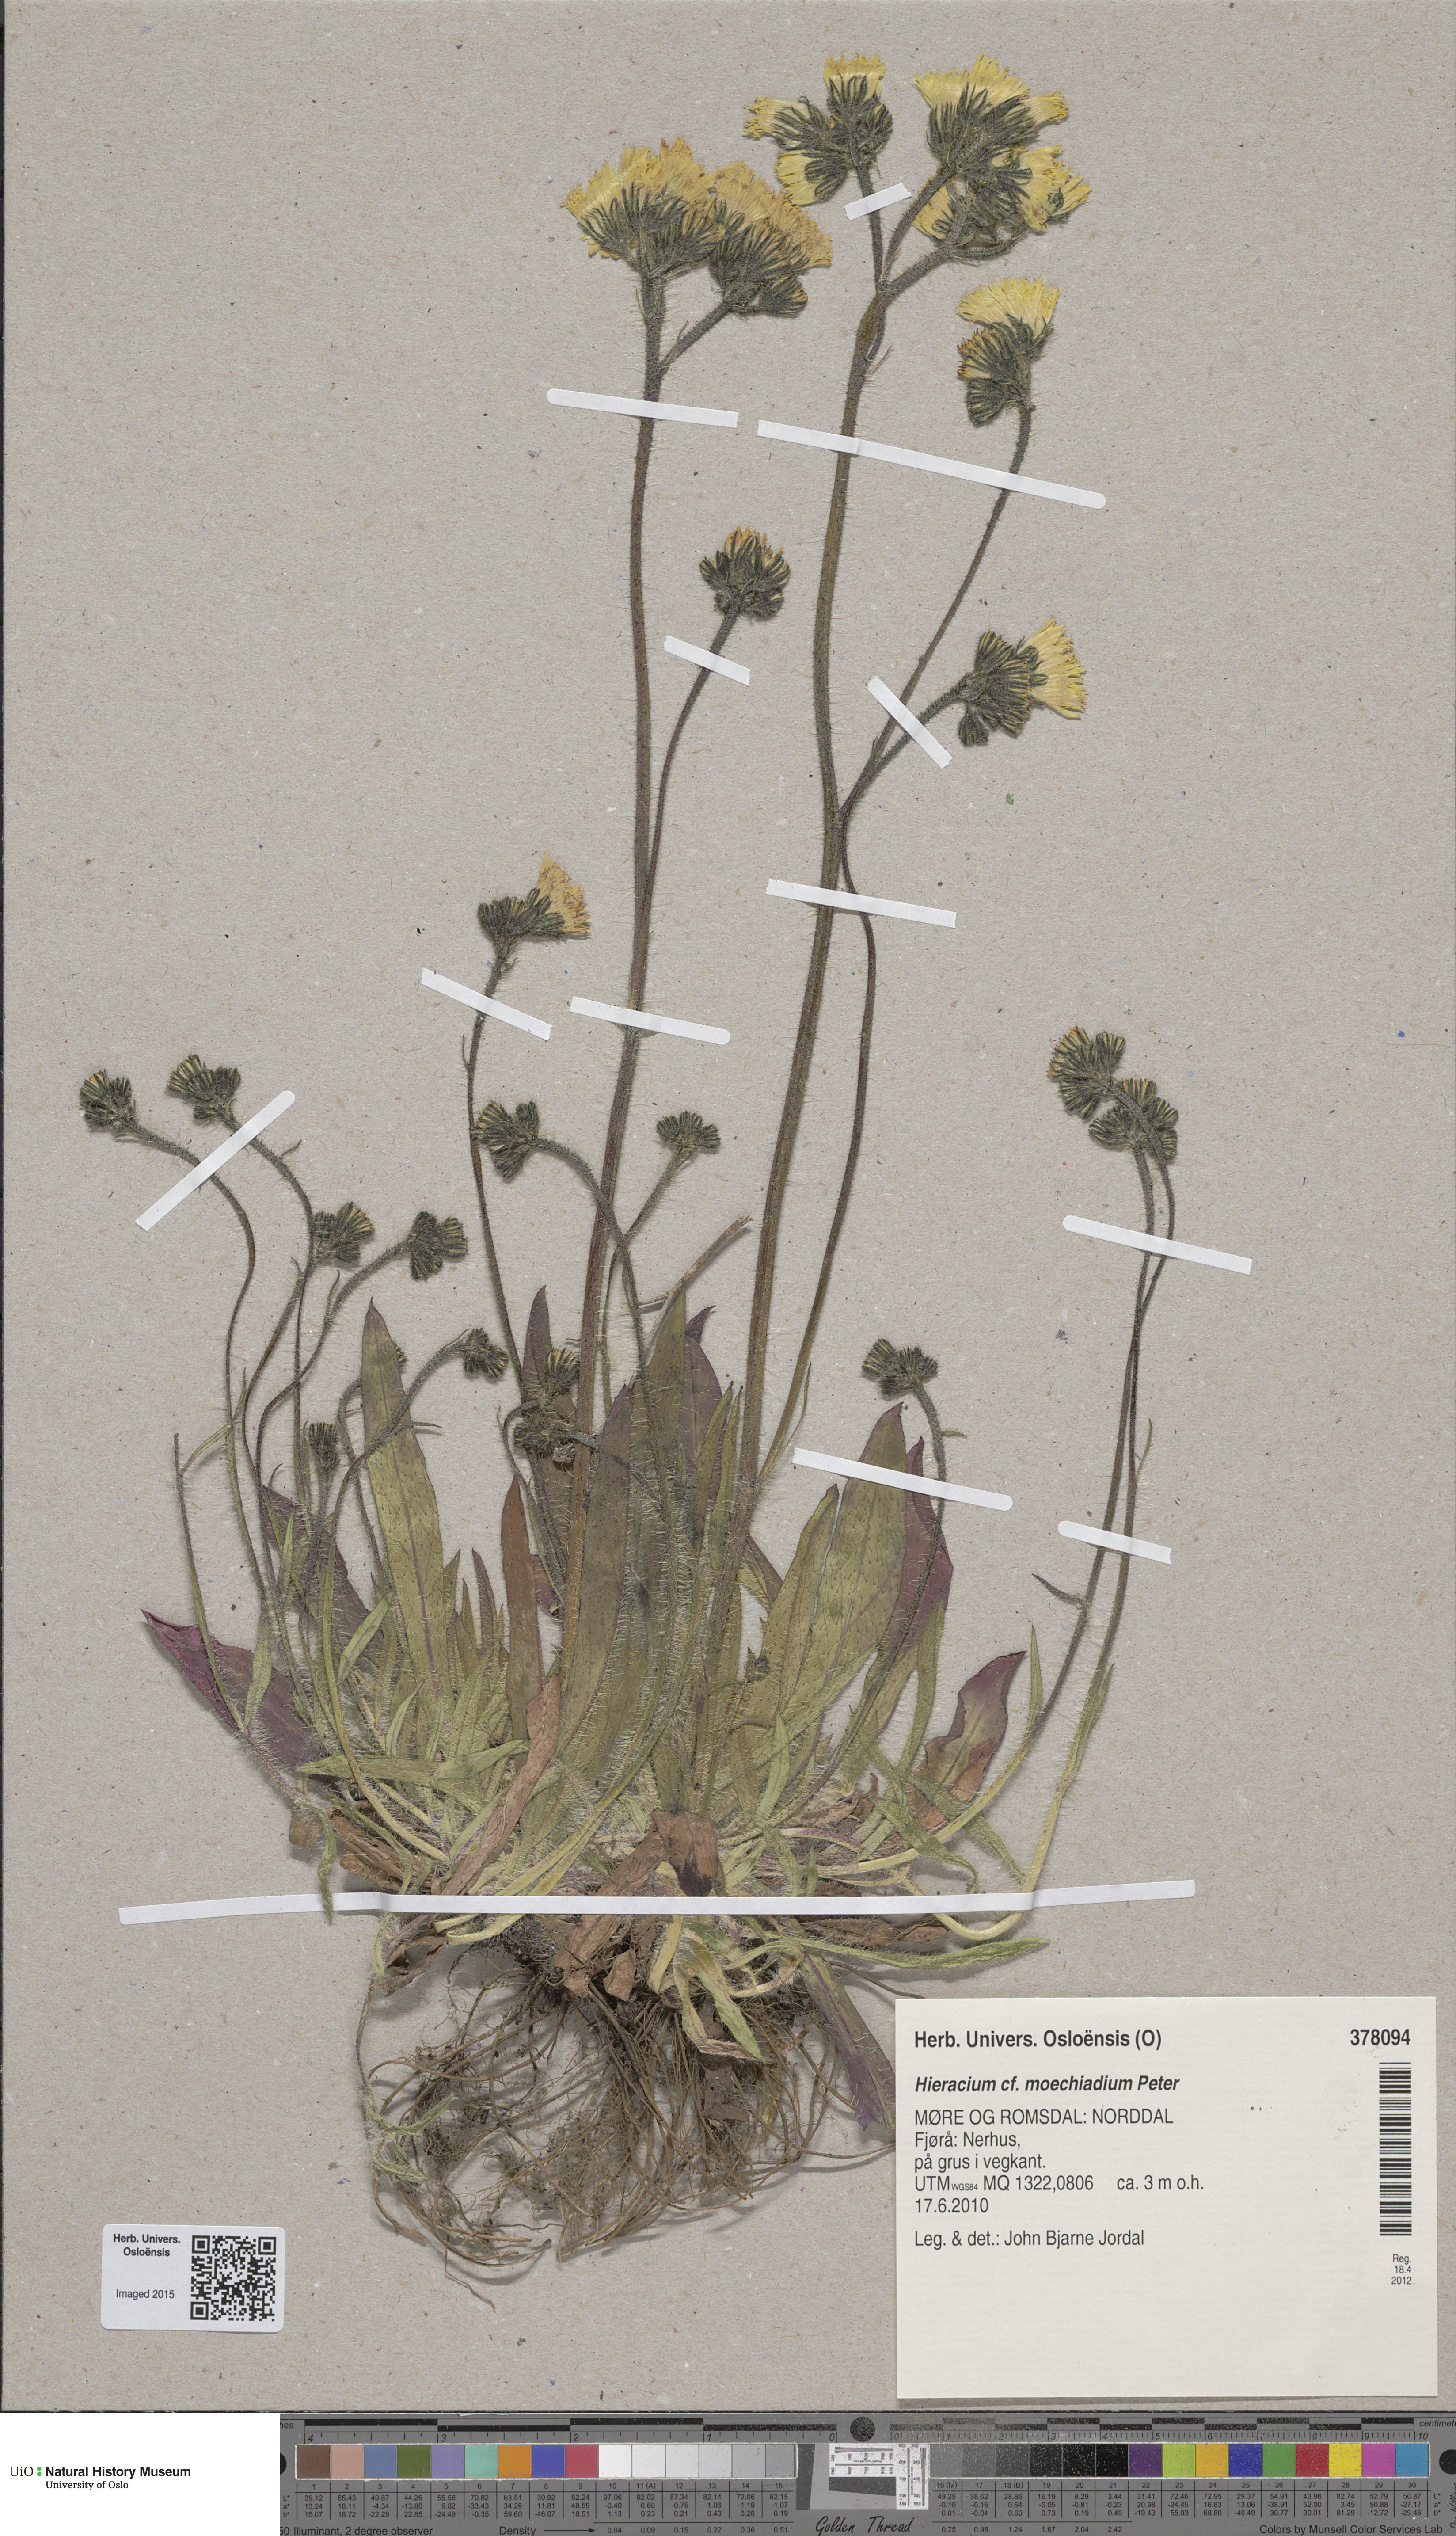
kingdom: Plantae
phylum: Tracheophyta
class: Magnoliopsida
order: Asterales
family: Asteraceae
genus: Pilosella
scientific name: Pilosella moechiadia
